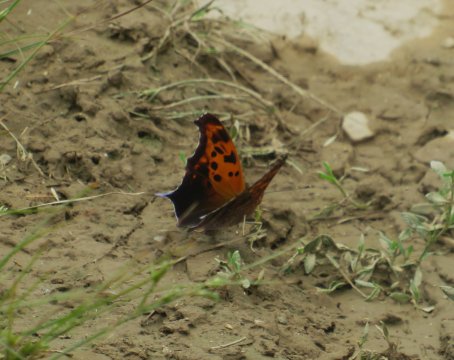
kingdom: Animalia
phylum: Arthropoda
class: Insecta
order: Lepidoptera
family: Nymphalidae
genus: Polygonia
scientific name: Polygonia interrogationis
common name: Question Mark
